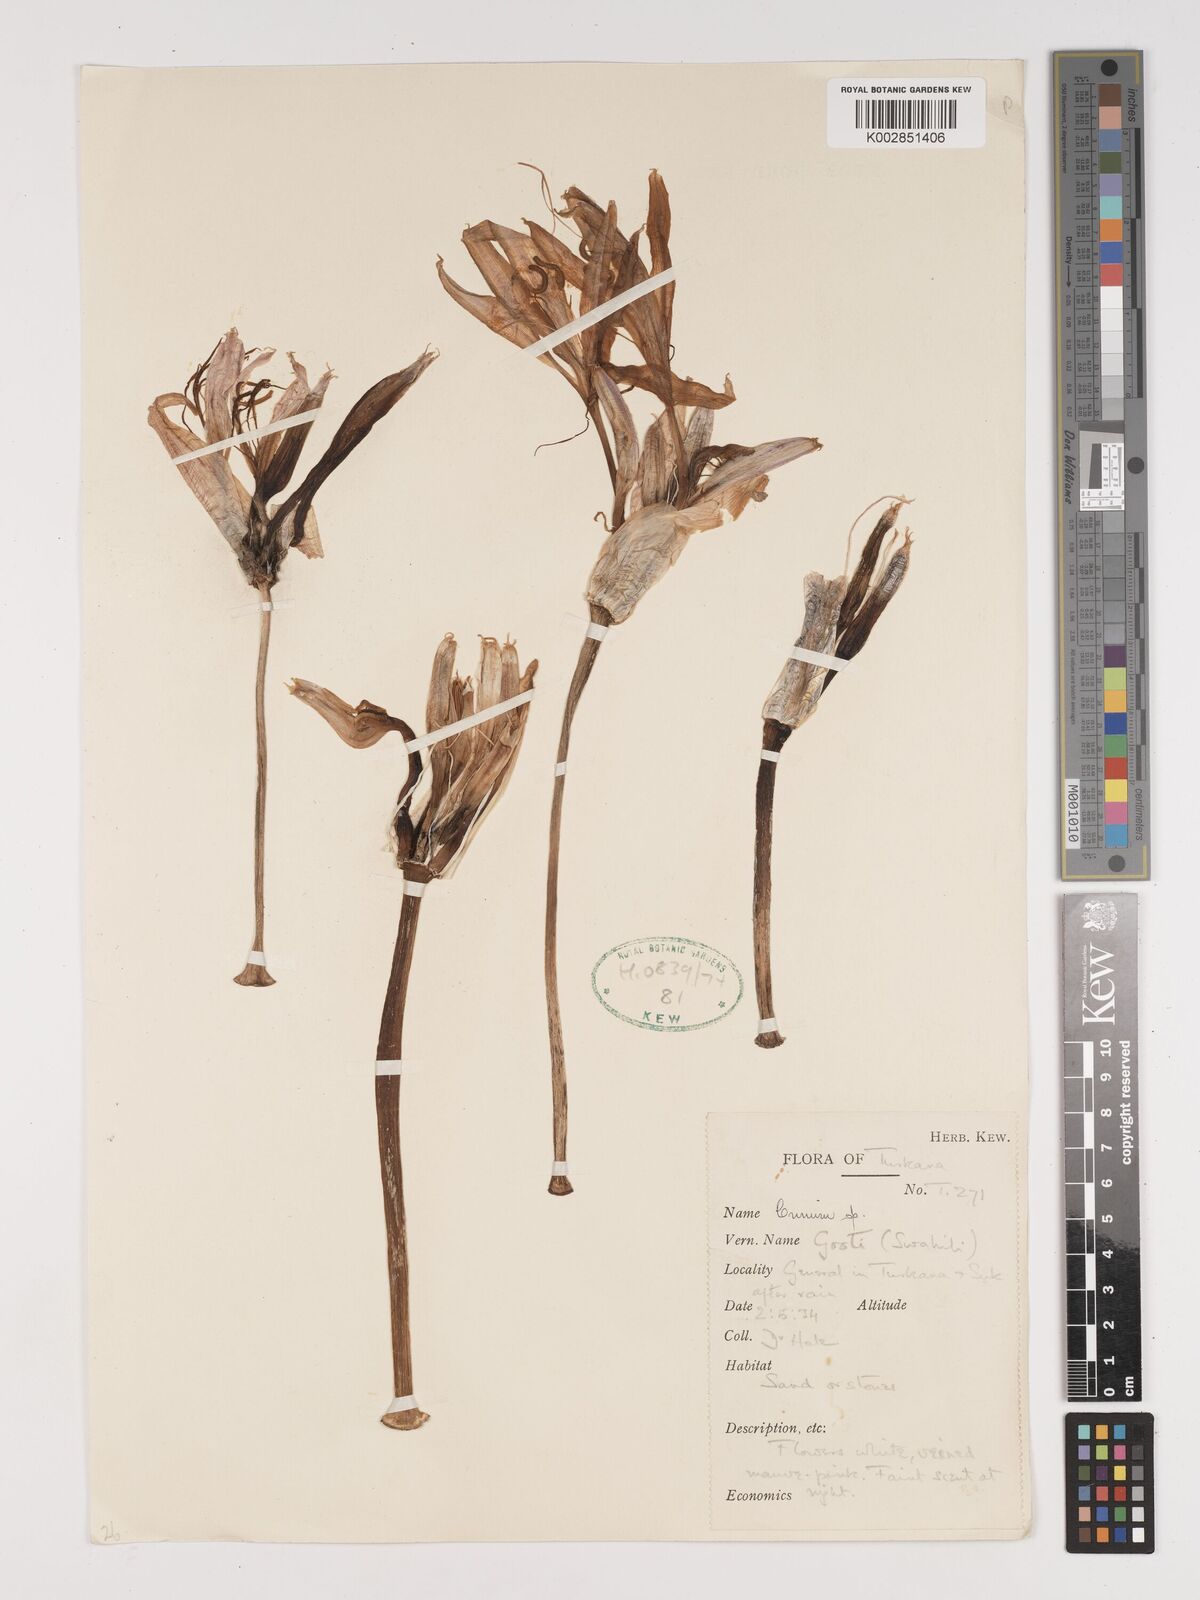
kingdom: Plantae
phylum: Tracheophyta
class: Liliopsida
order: Asparagales
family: Amaryllidaceae
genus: Crinum
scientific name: Crinum
